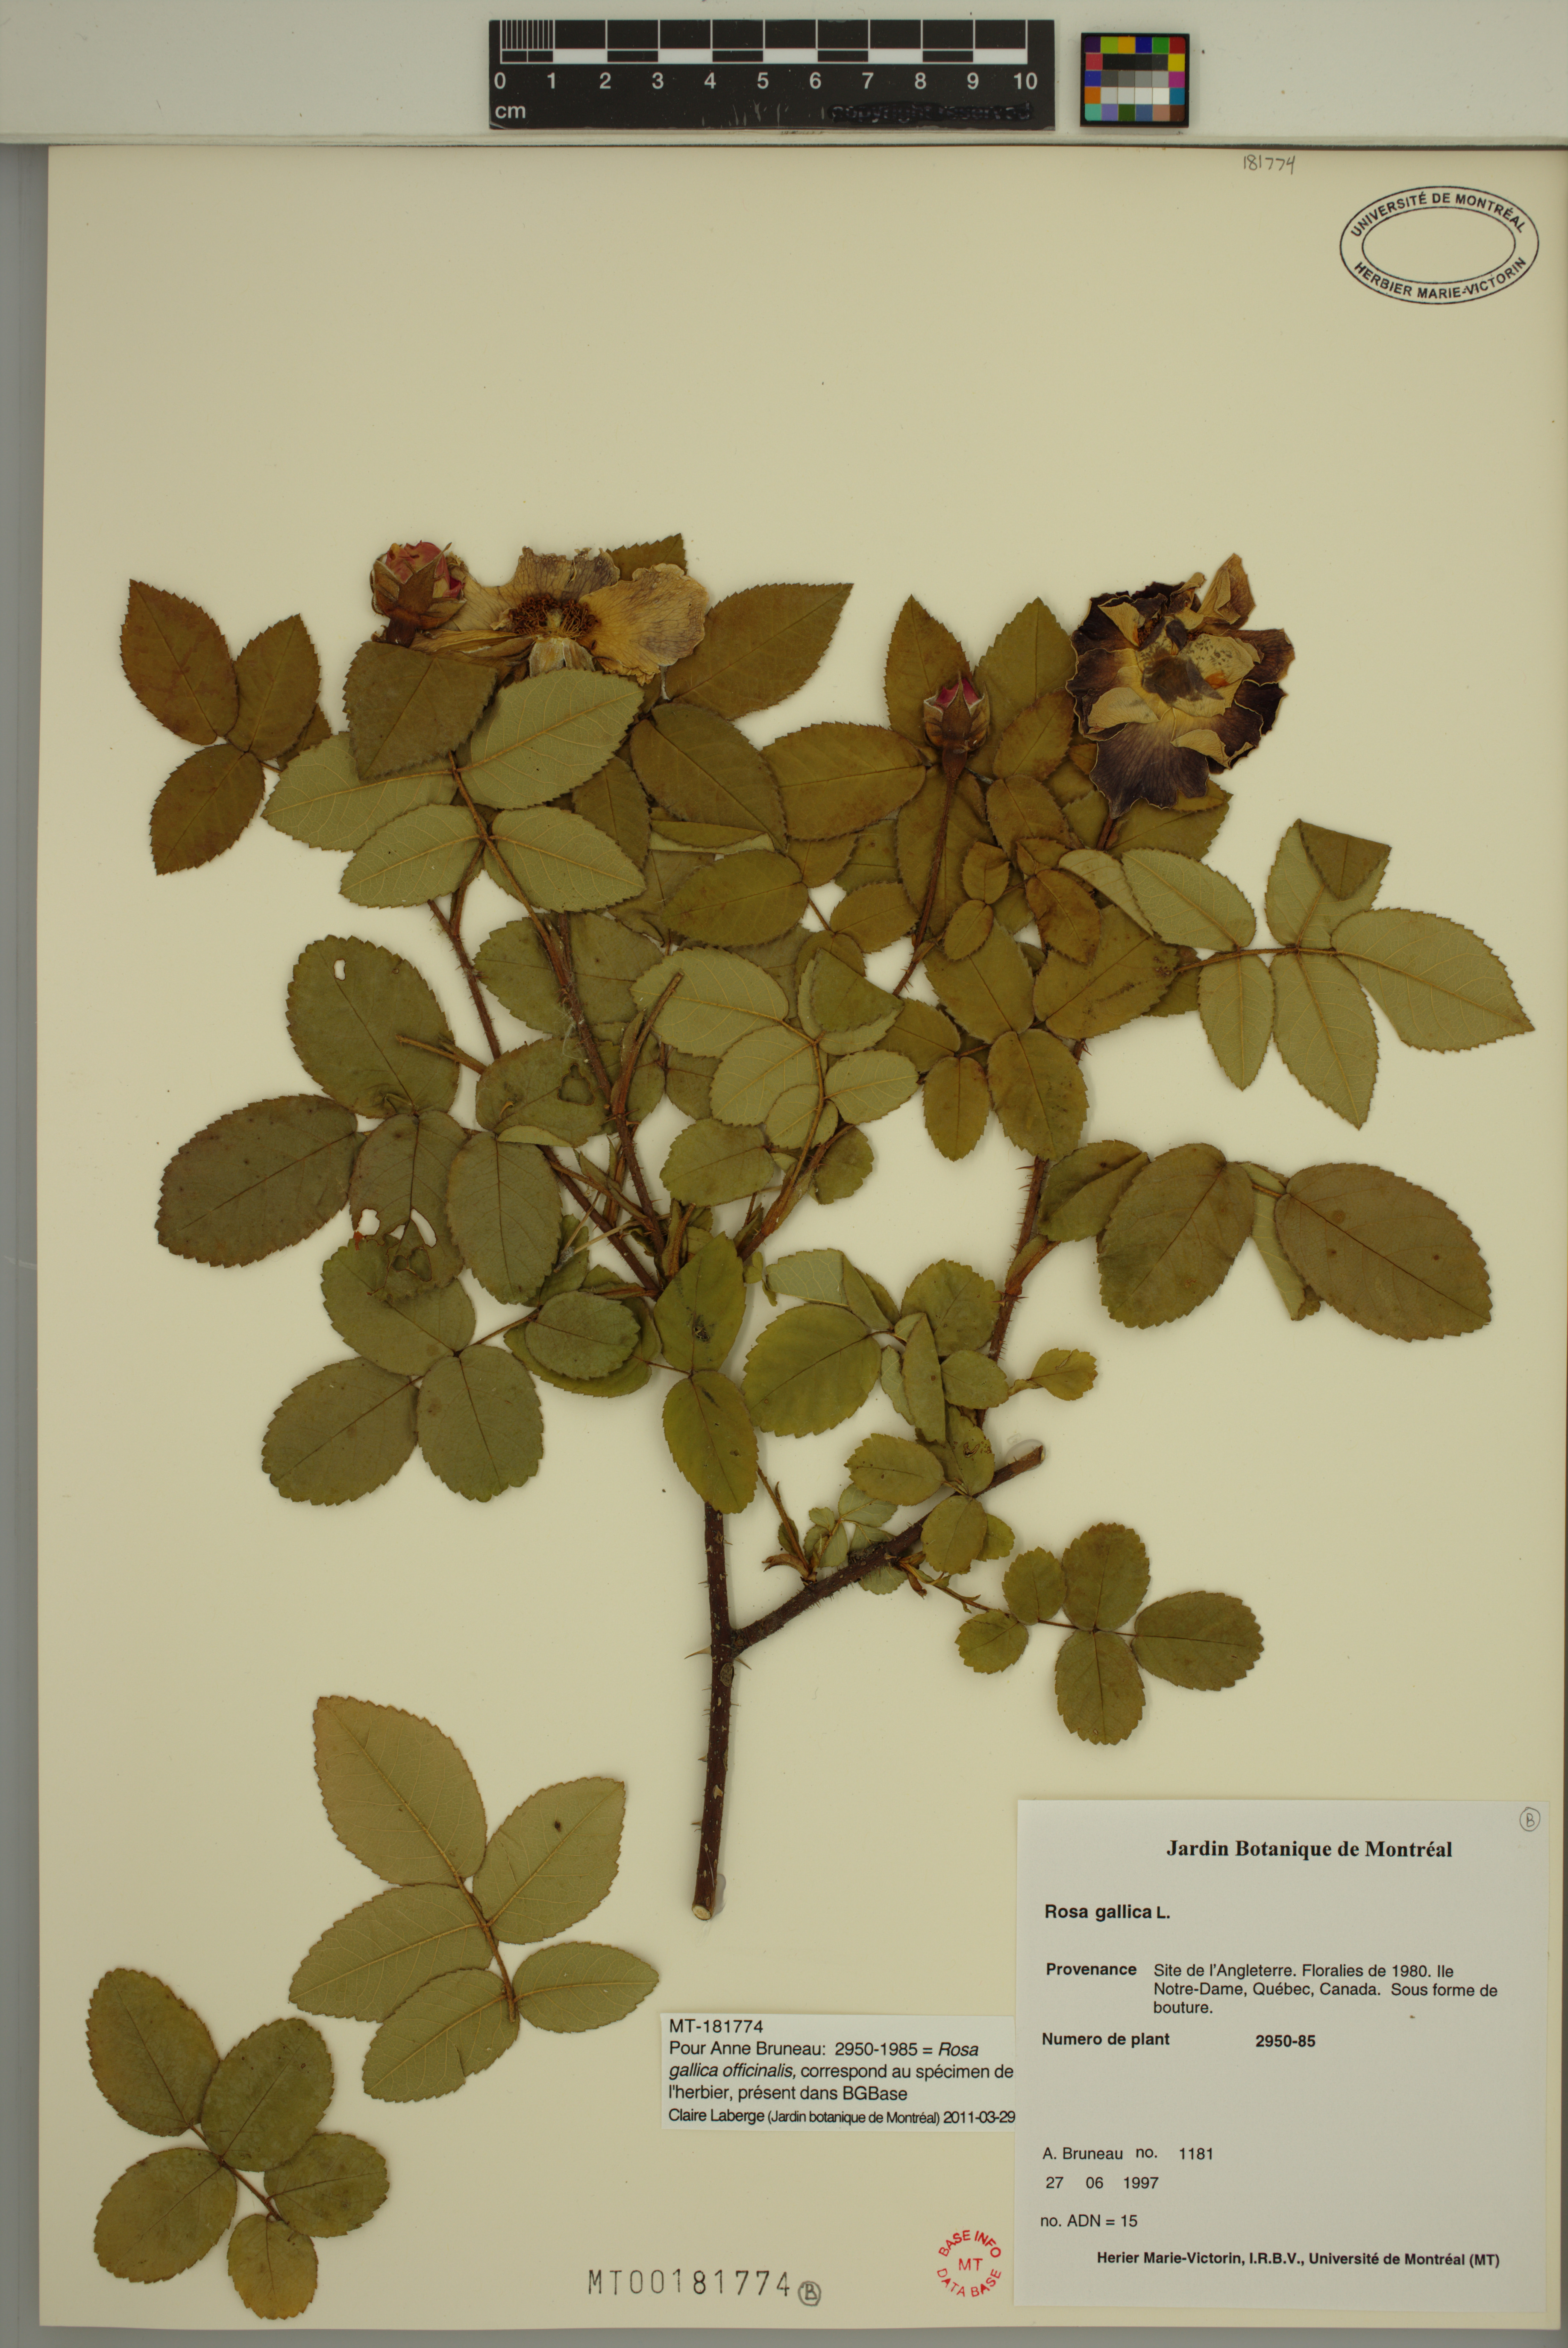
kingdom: Plantae
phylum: Tracheophyta
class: Magnoliopsida
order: Rosales
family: Rosaceae
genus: Rosa
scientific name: Rosa gallica
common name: French rose
